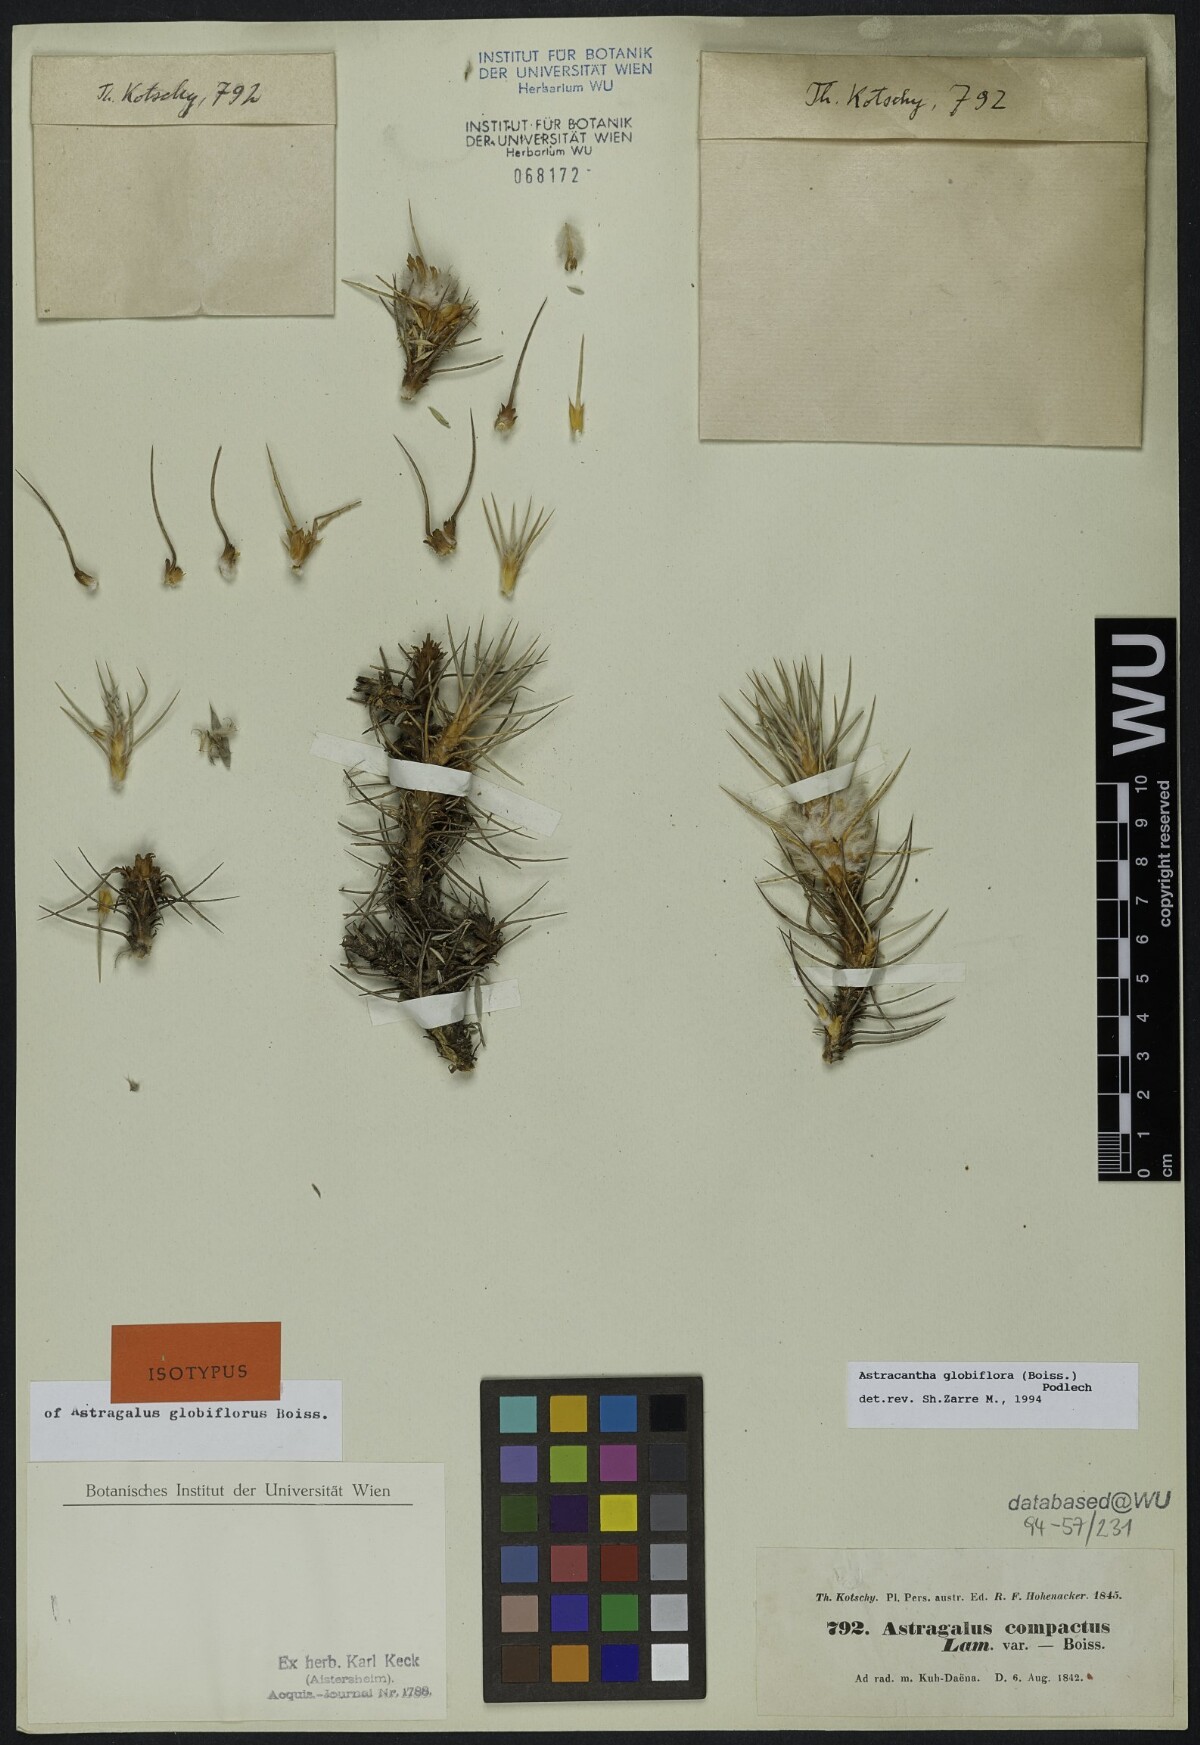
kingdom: Plantae
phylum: Tracheophyta
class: Magnoliopsida
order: Fabales
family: Fabaceae
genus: Astragalus
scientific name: Astragalus globiflorus
